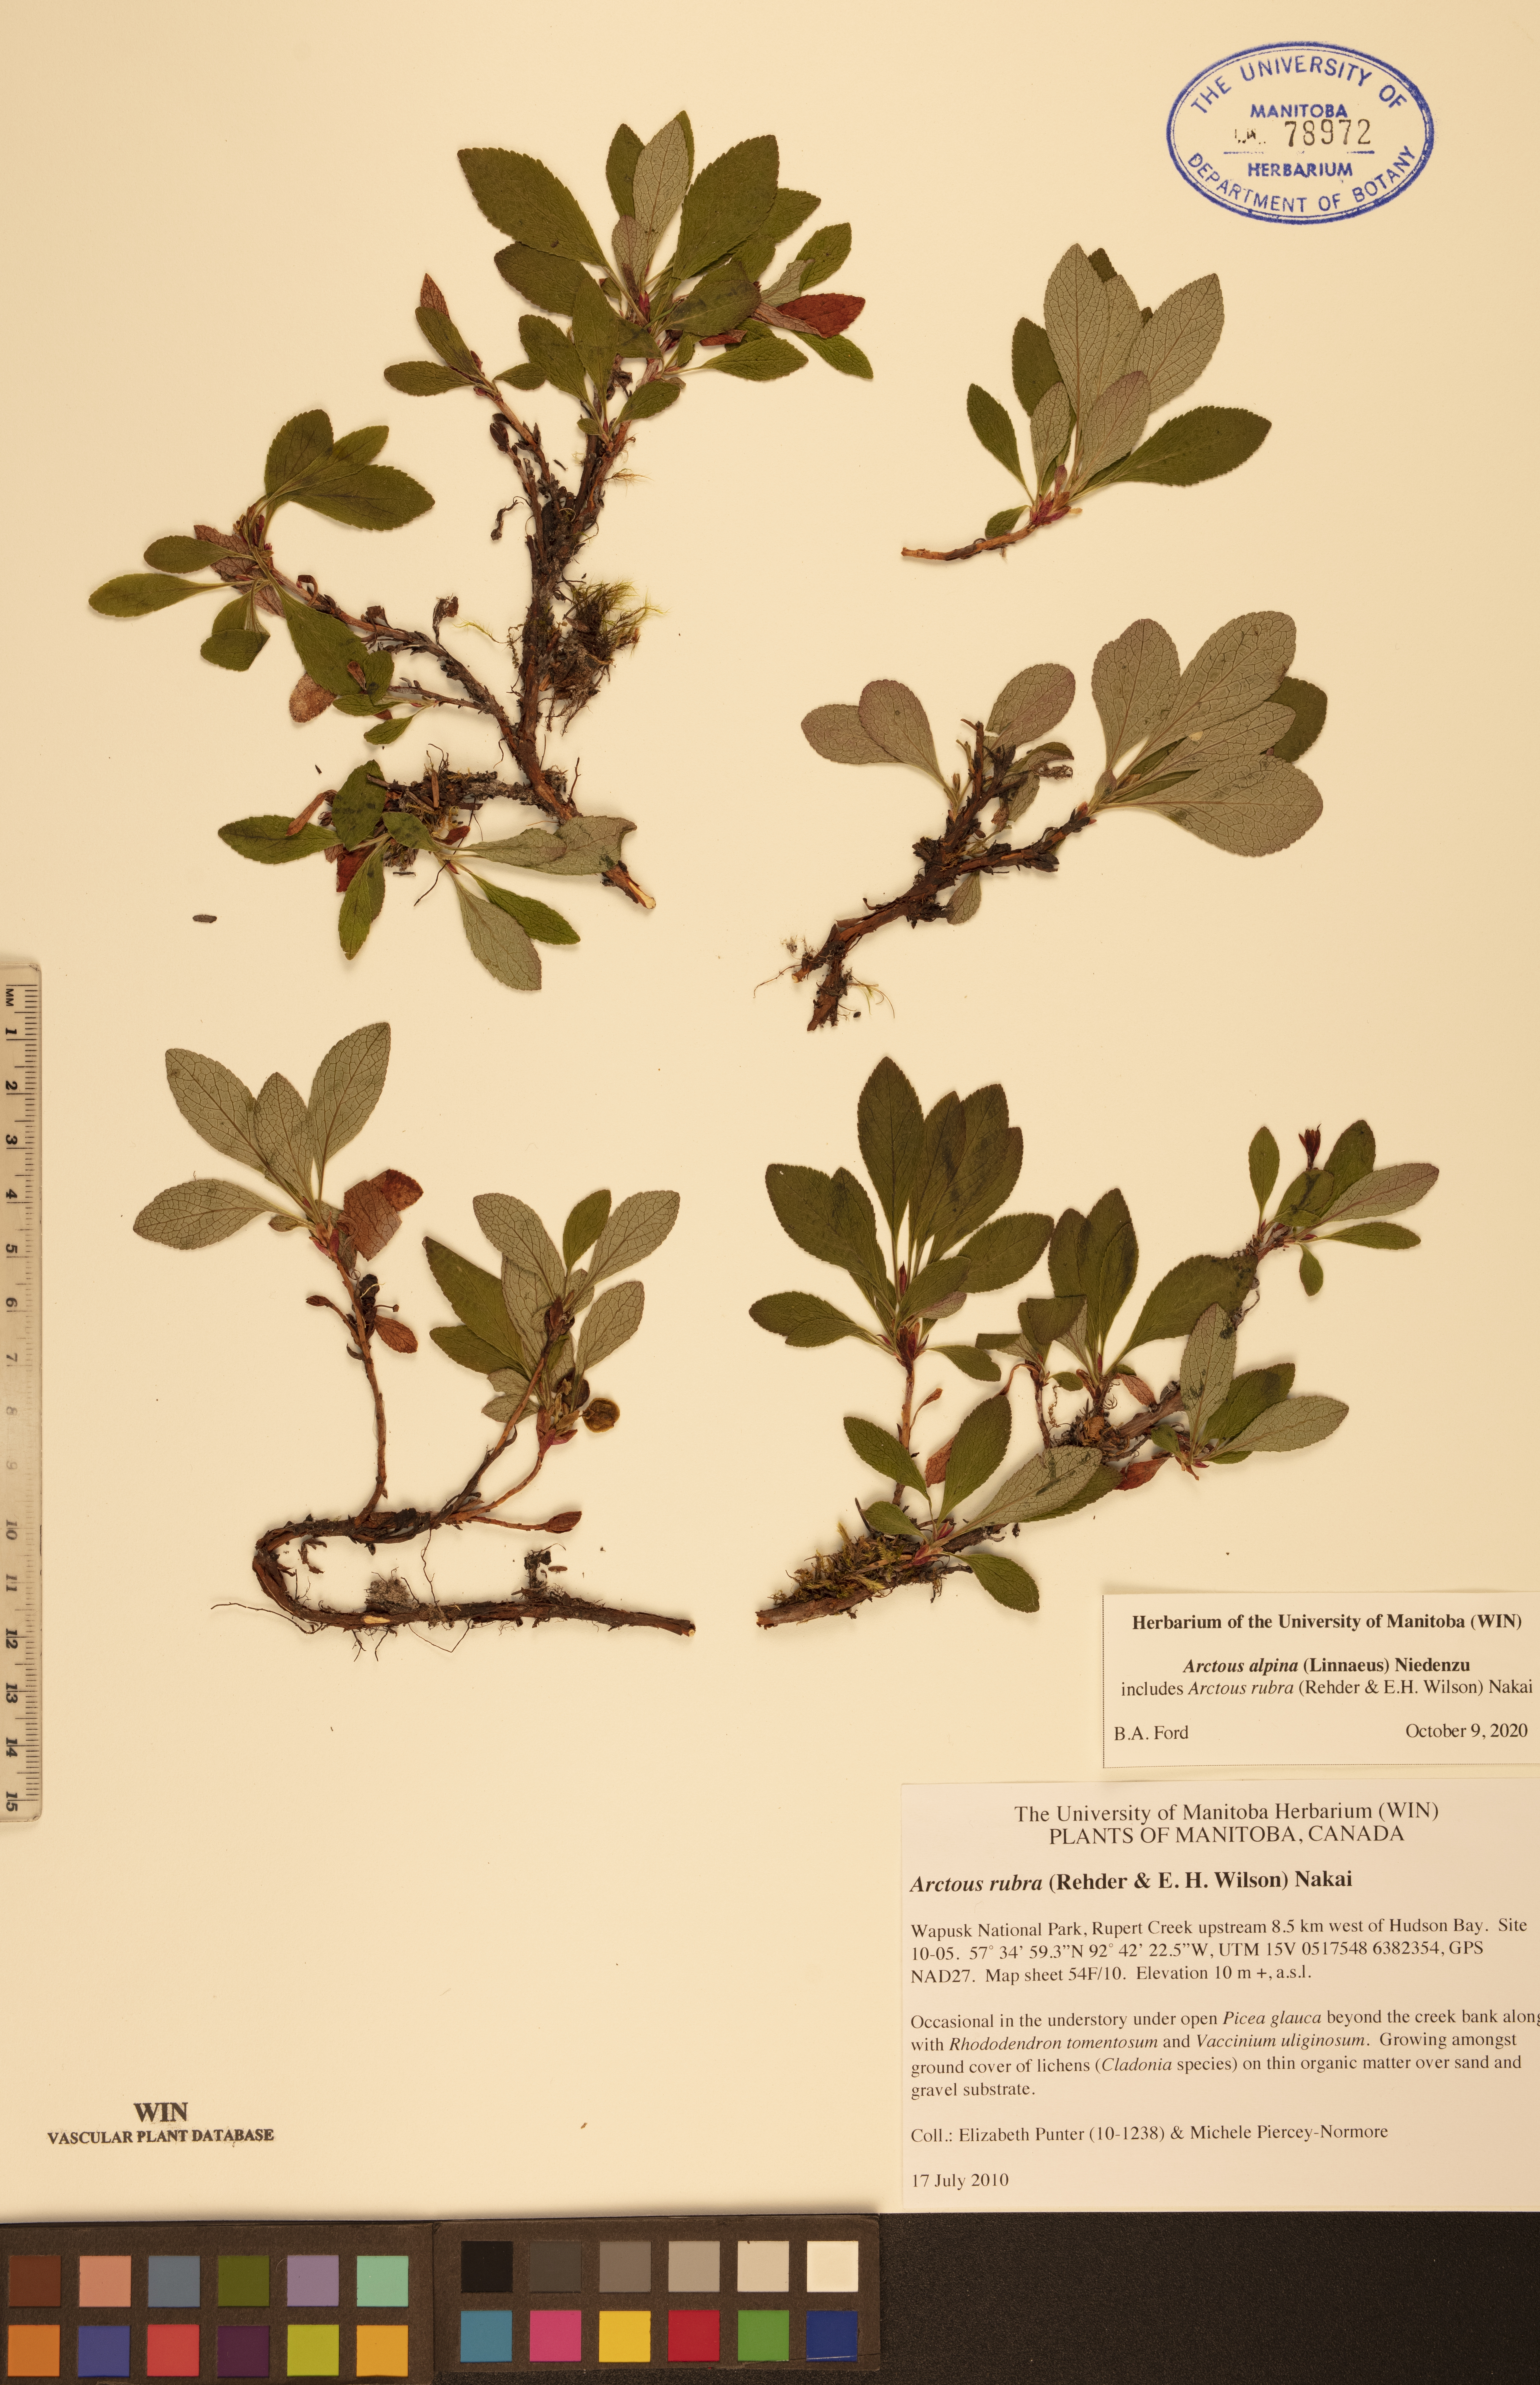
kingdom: Plantae
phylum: Tracheophyta
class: Magnoliopsida
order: Ericales
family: Ericaceae
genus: Arctostaphylos
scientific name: Arctostaphylos alpinus
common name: Alpine bearberry
